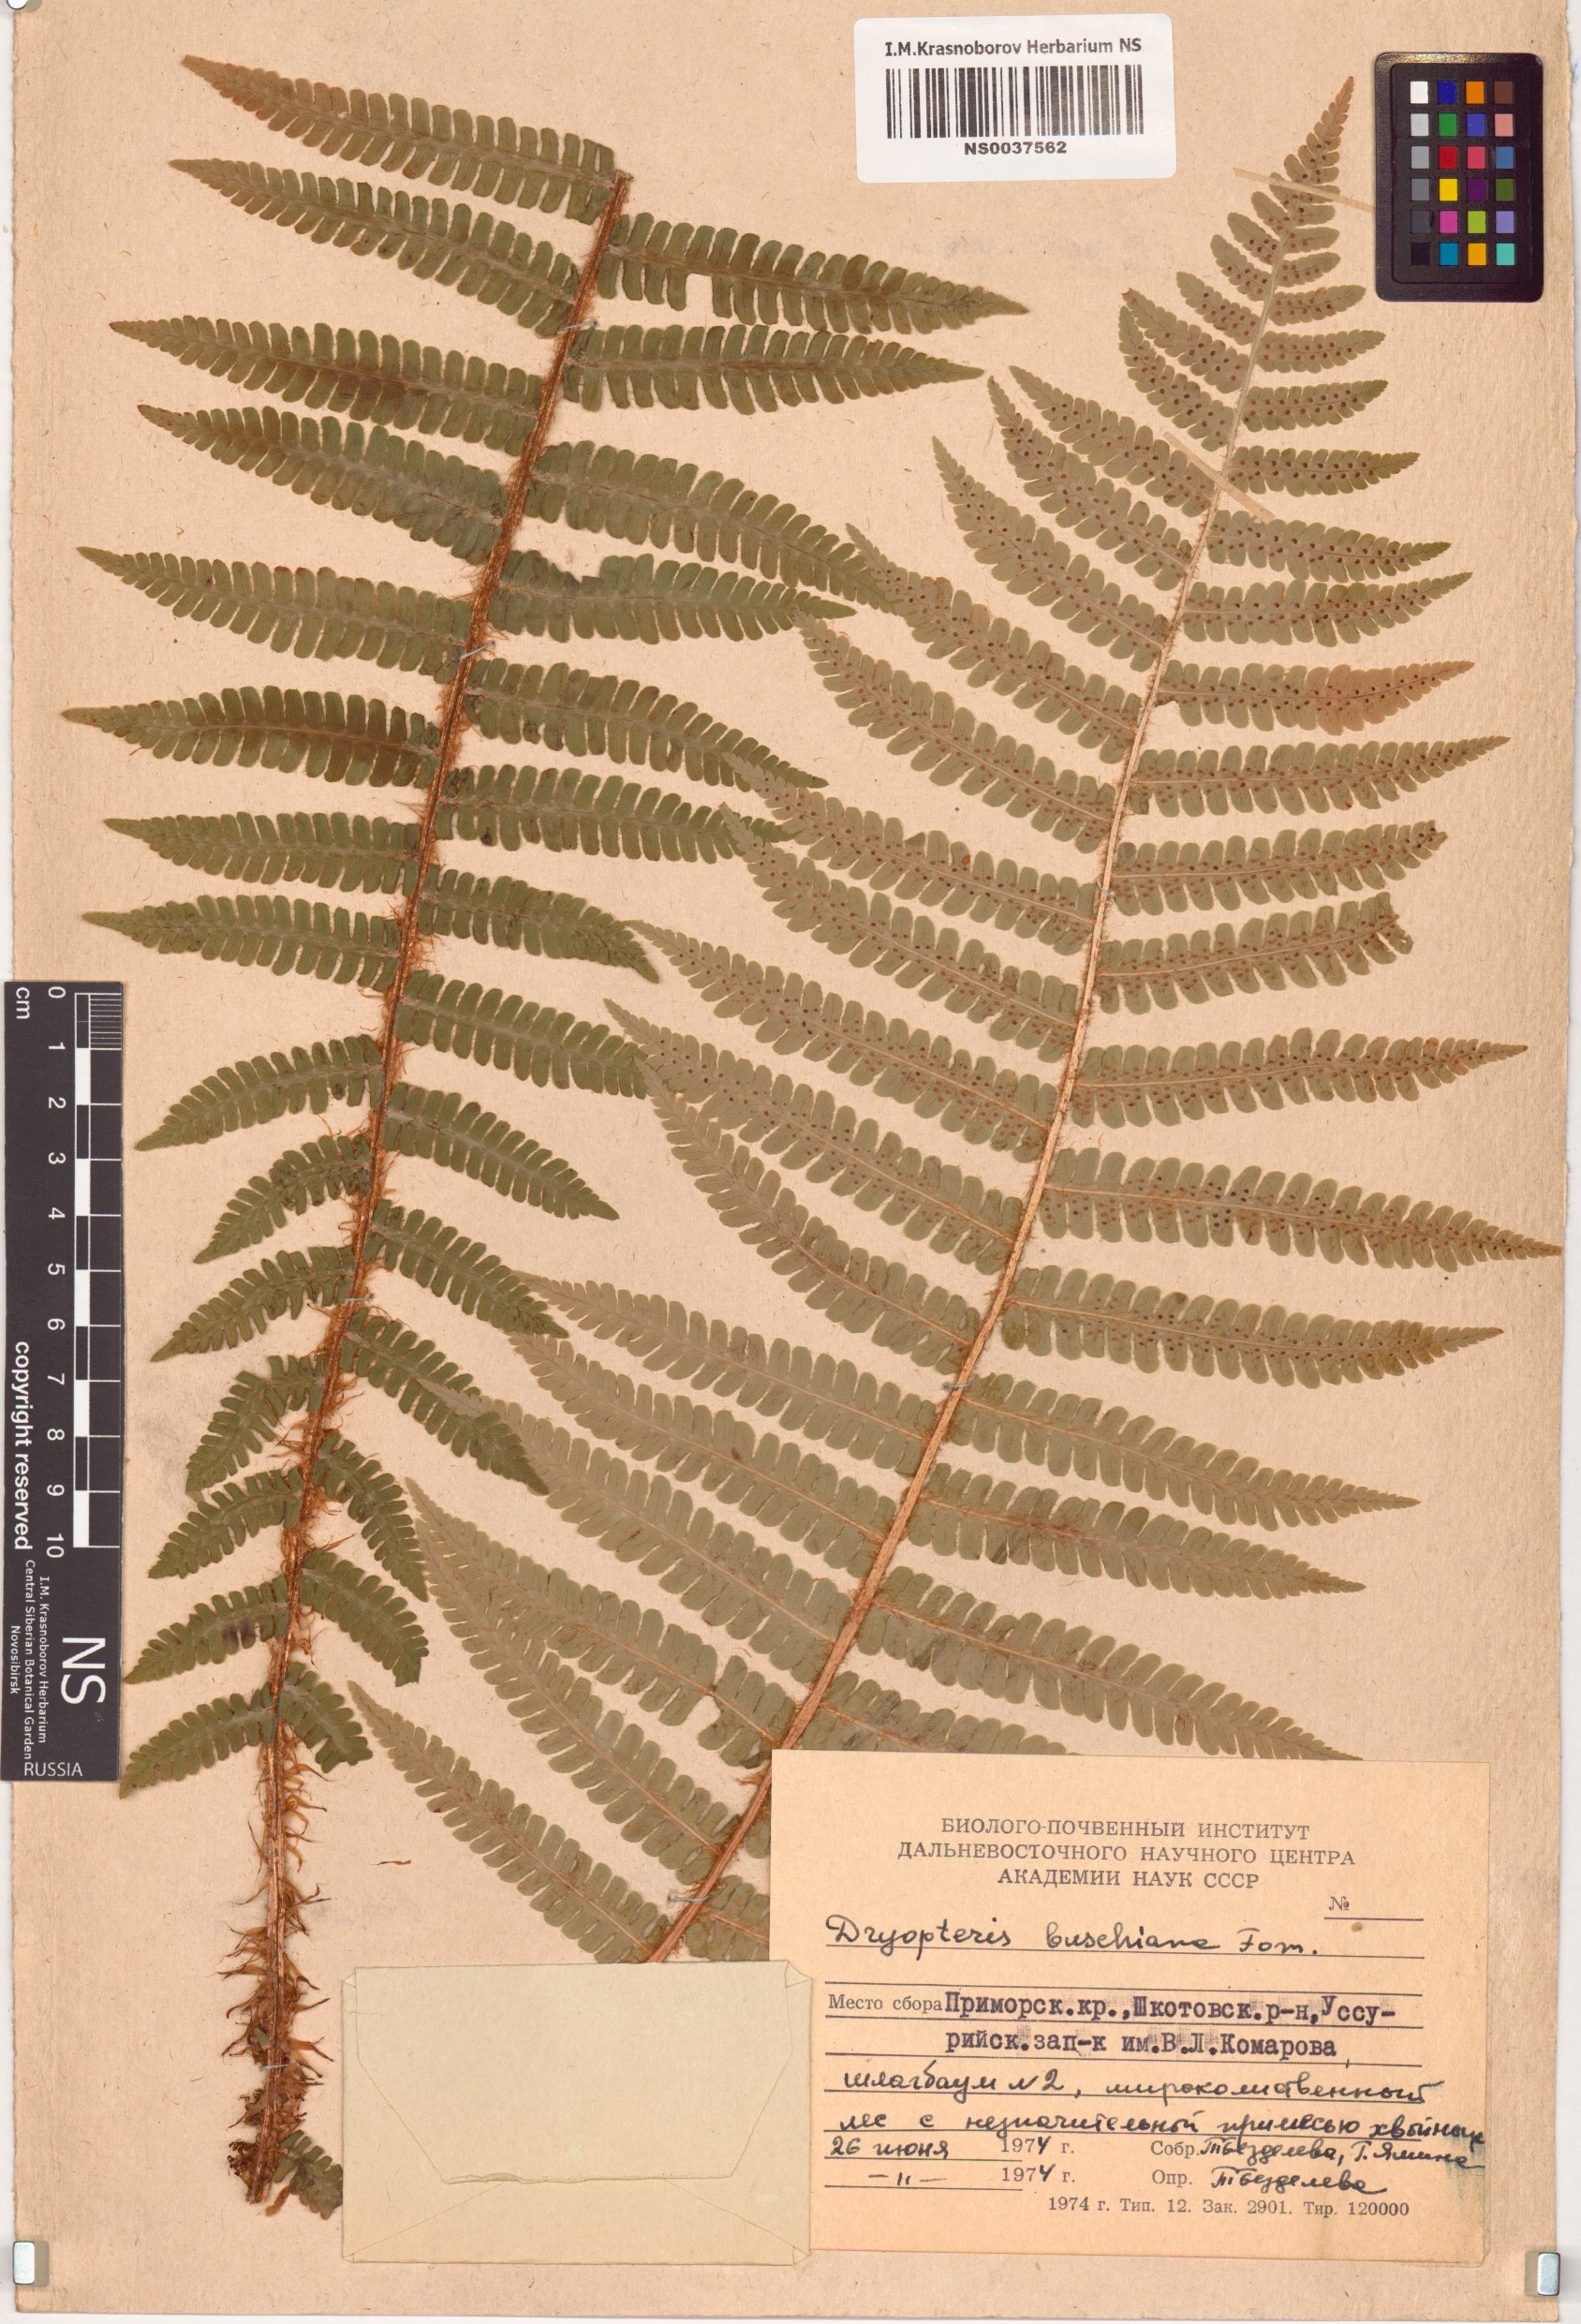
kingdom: Plantae
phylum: Tracheophyta
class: Polypodiopsida
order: Polypodiales
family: Dryopteridaceae
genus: Dryopteris
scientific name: Dryopteris crassirhizoma
